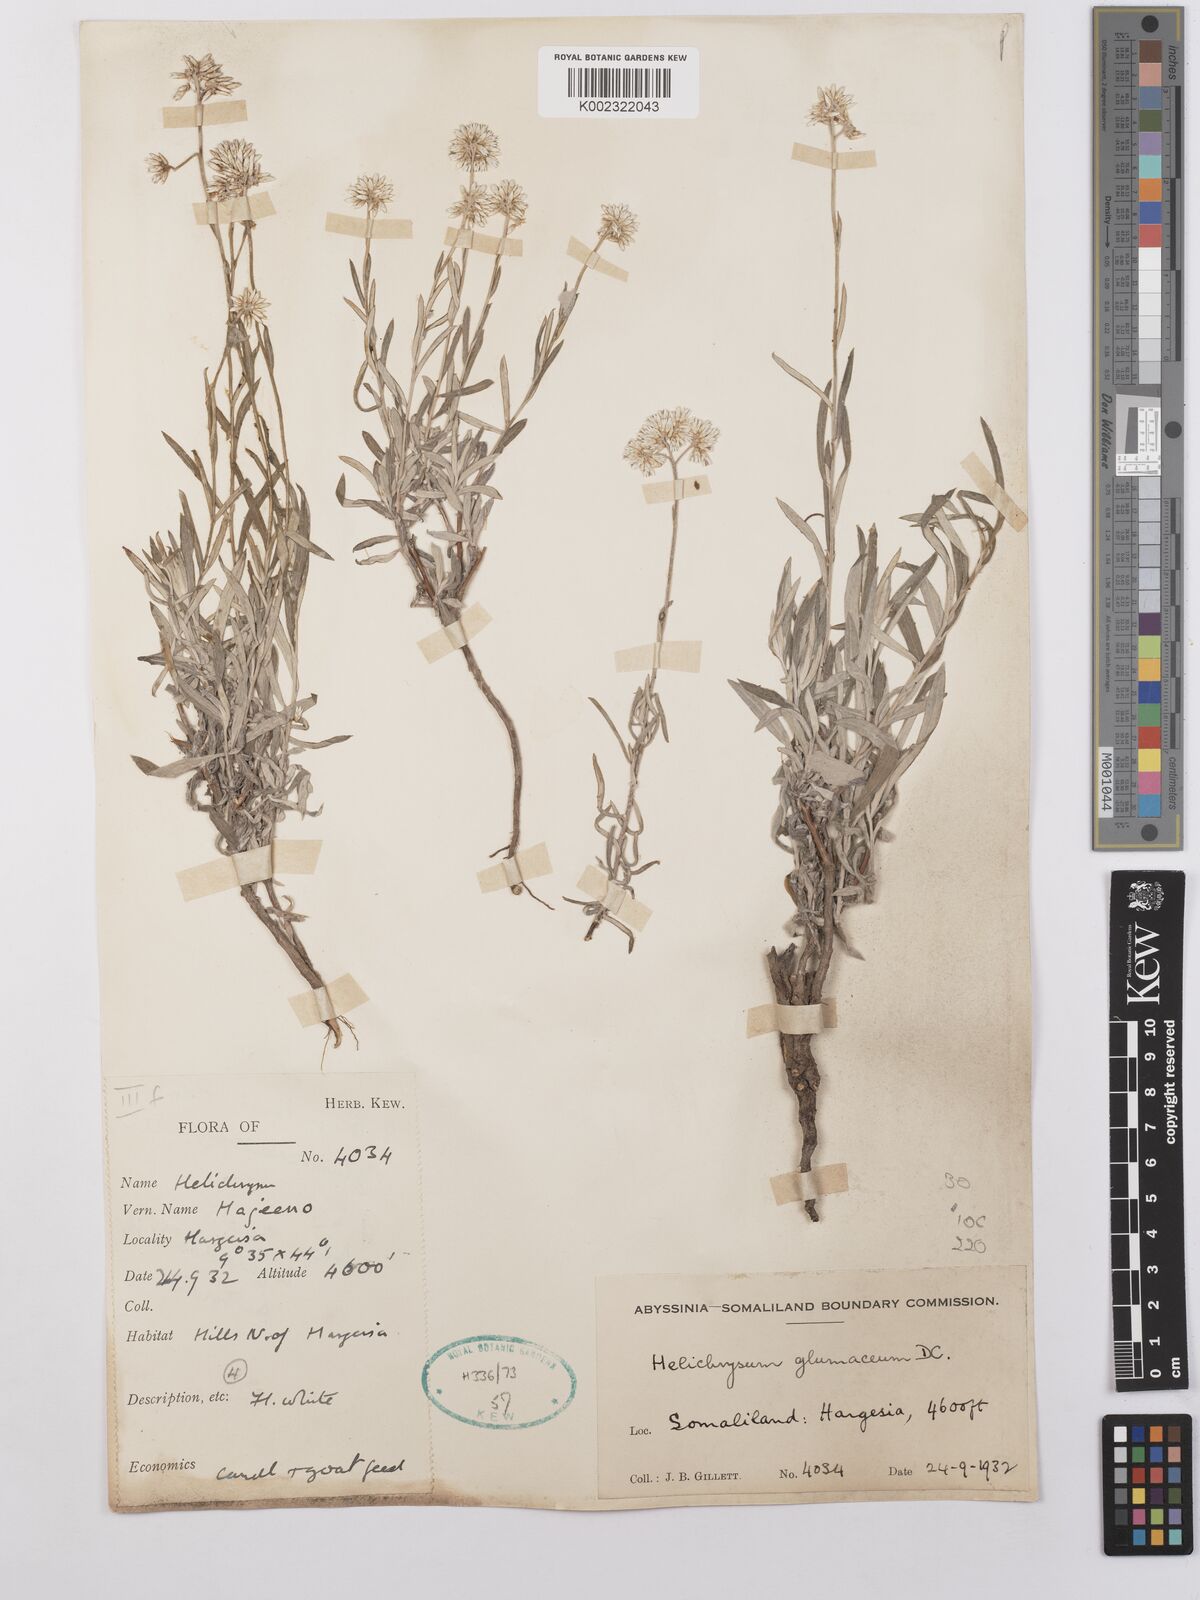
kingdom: Plantae
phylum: Tracheophyta
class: Magnoliopsida
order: Asterales
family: Asteraceae
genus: Helichrysum
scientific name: Helichrysum glumaceum
